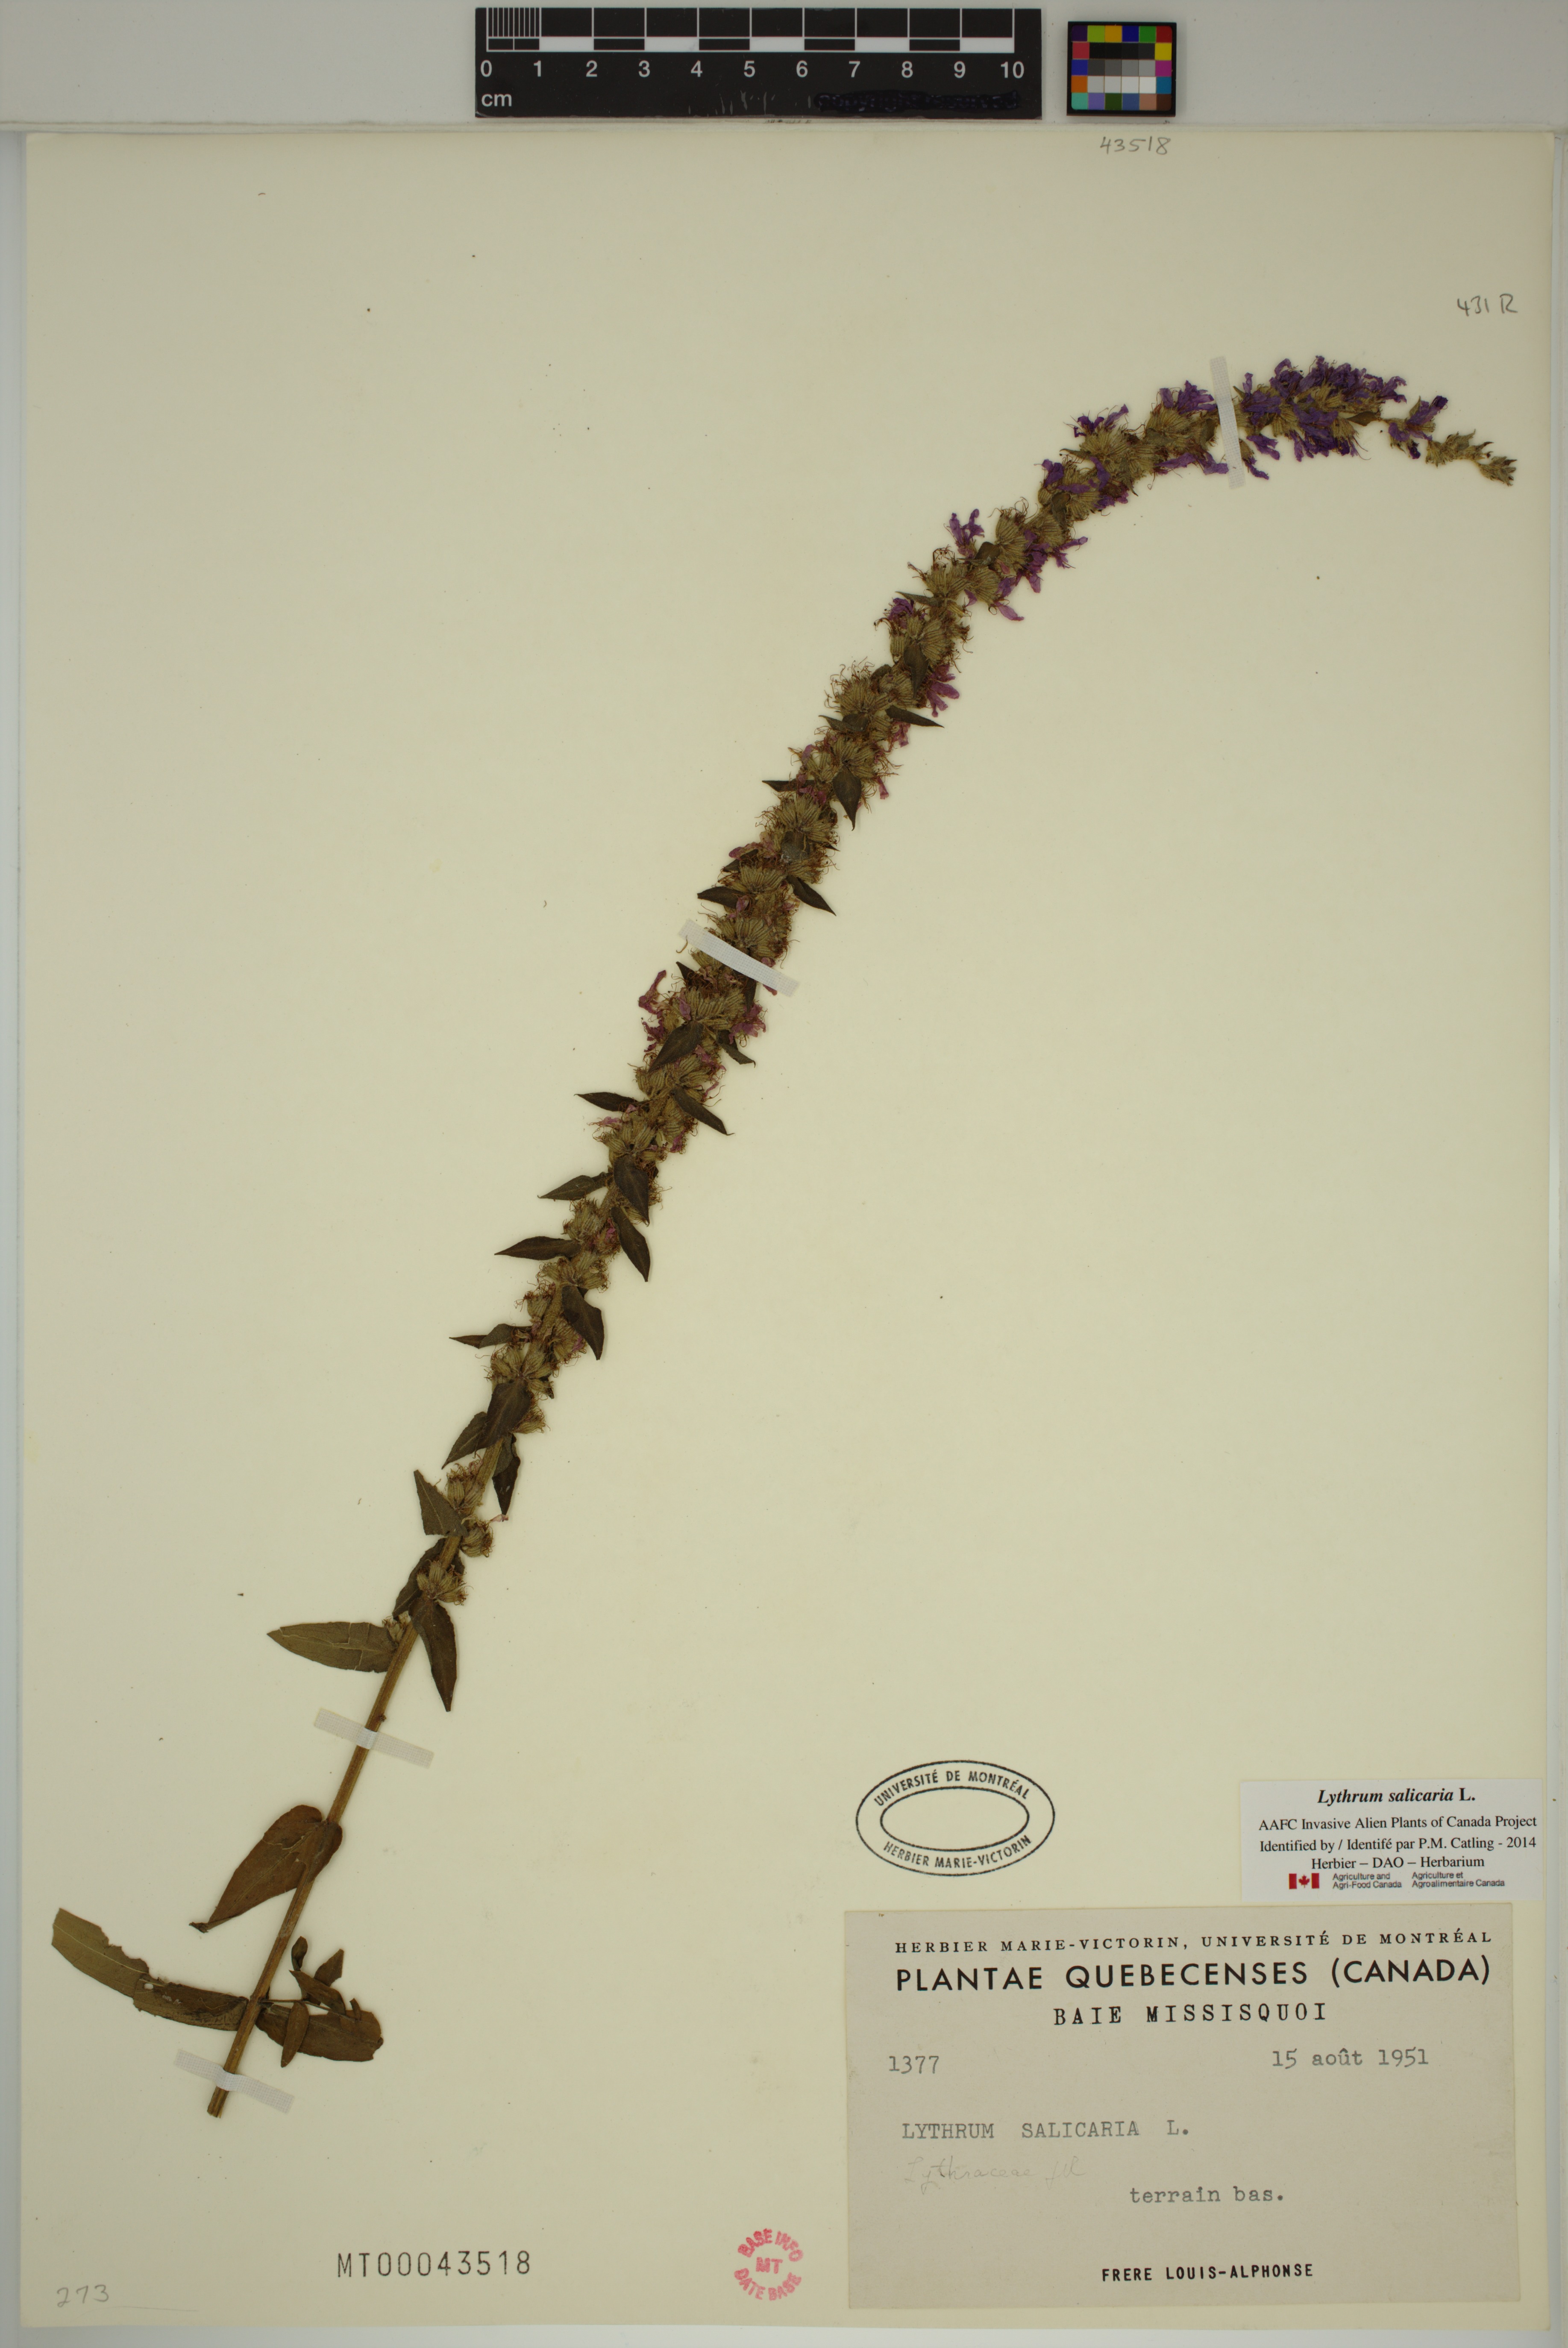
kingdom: Plantae
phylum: Tracheophyta
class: Magnoliopsida
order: Myrtales
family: Lythraceae
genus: Lythrum
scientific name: Lythrum salicaria
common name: Purple loosestrife
